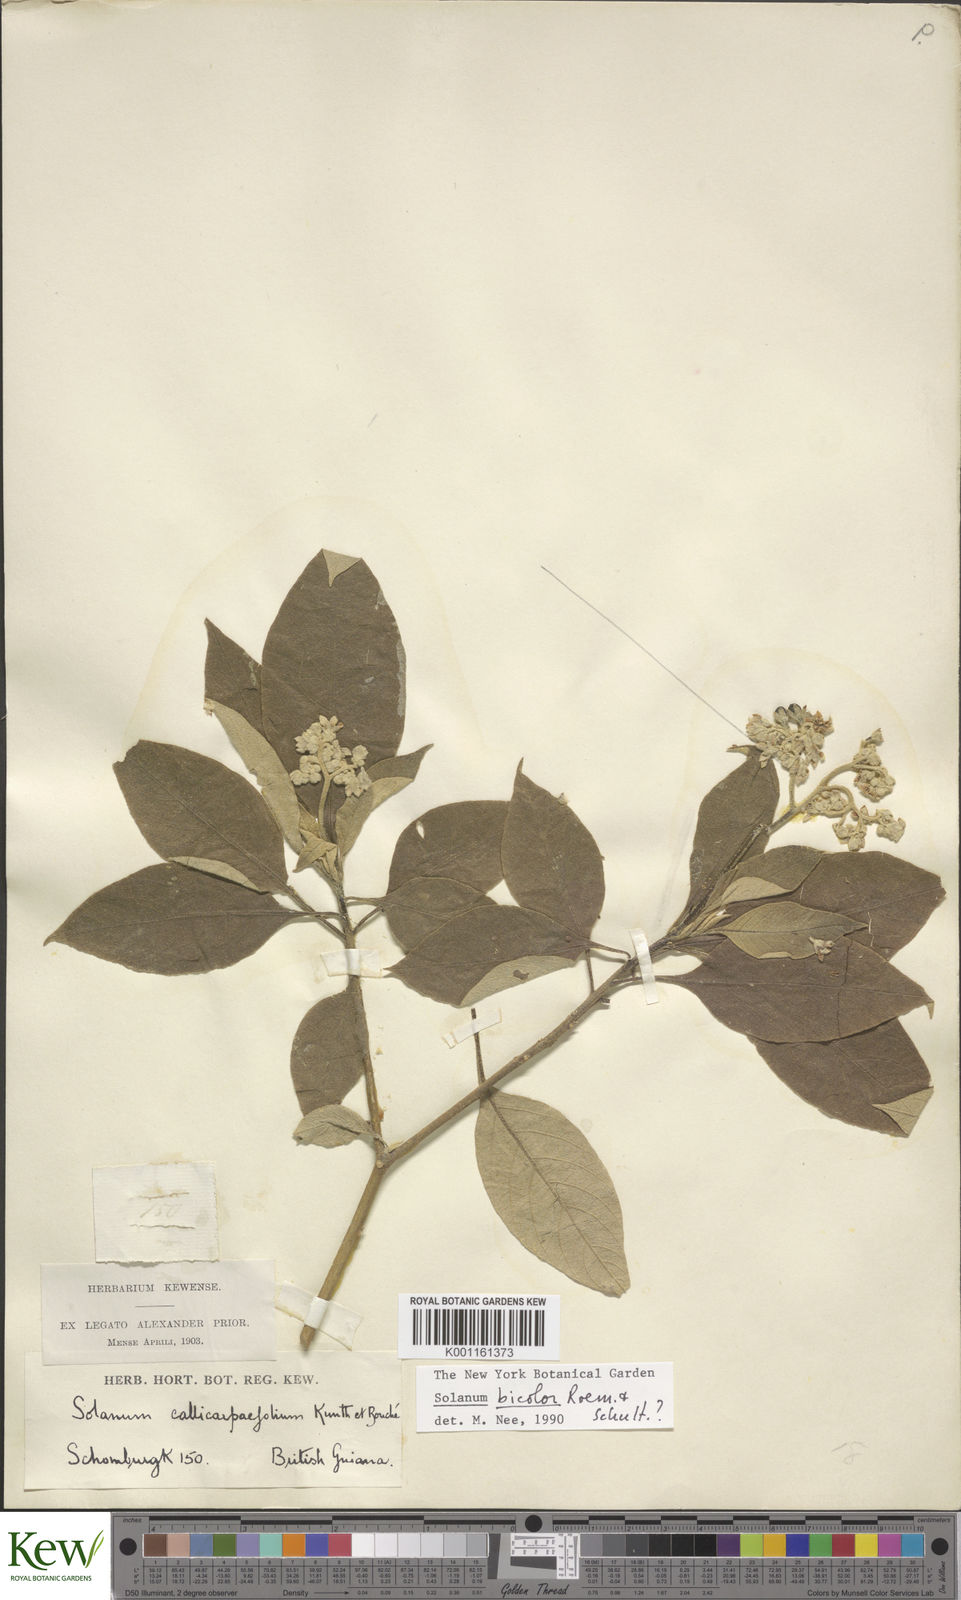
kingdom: Plantae
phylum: Tracheophyta
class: Magnoliopsida
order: Solanales
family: Solanaceae
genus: Solanum
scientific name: Solanum bicolor
